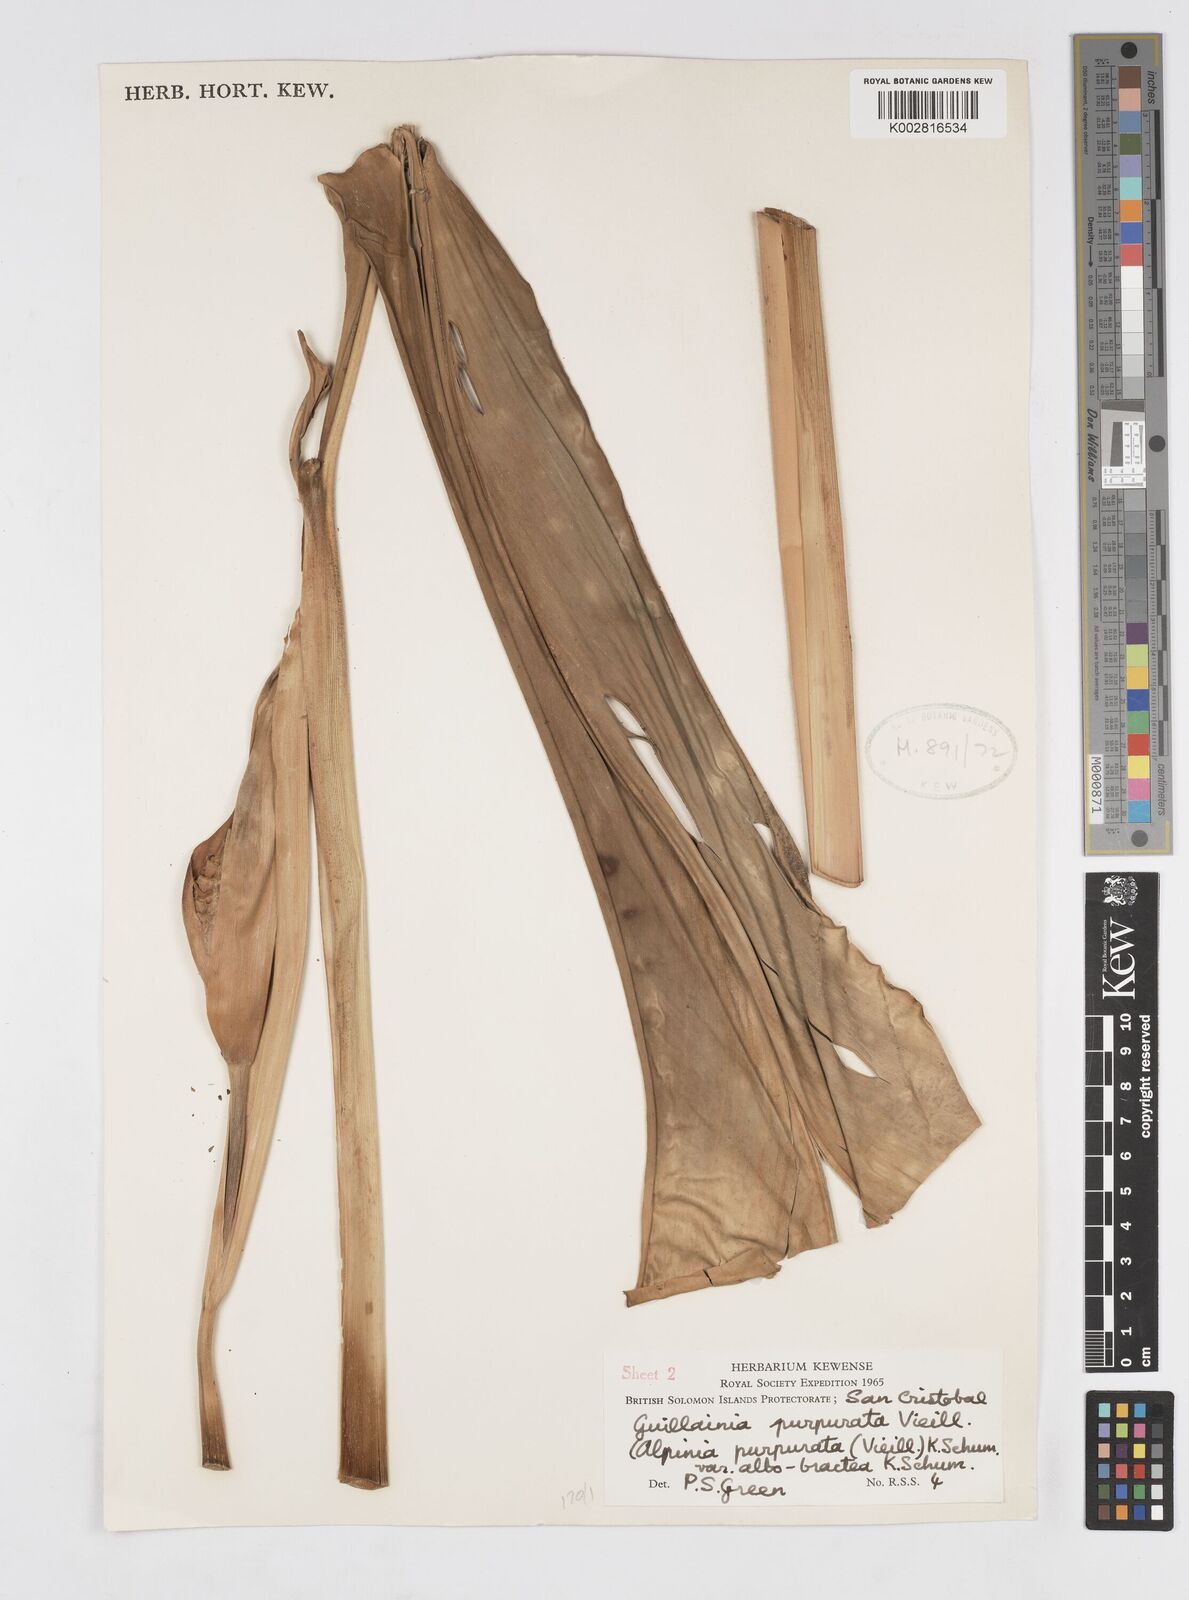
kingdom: Plantae
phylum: Tracheophyta
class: Liliopsida
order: Zingiberales
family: Zingiberaceae
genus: Alpinia
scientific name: Alpinia purpurata
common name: Red ginger
